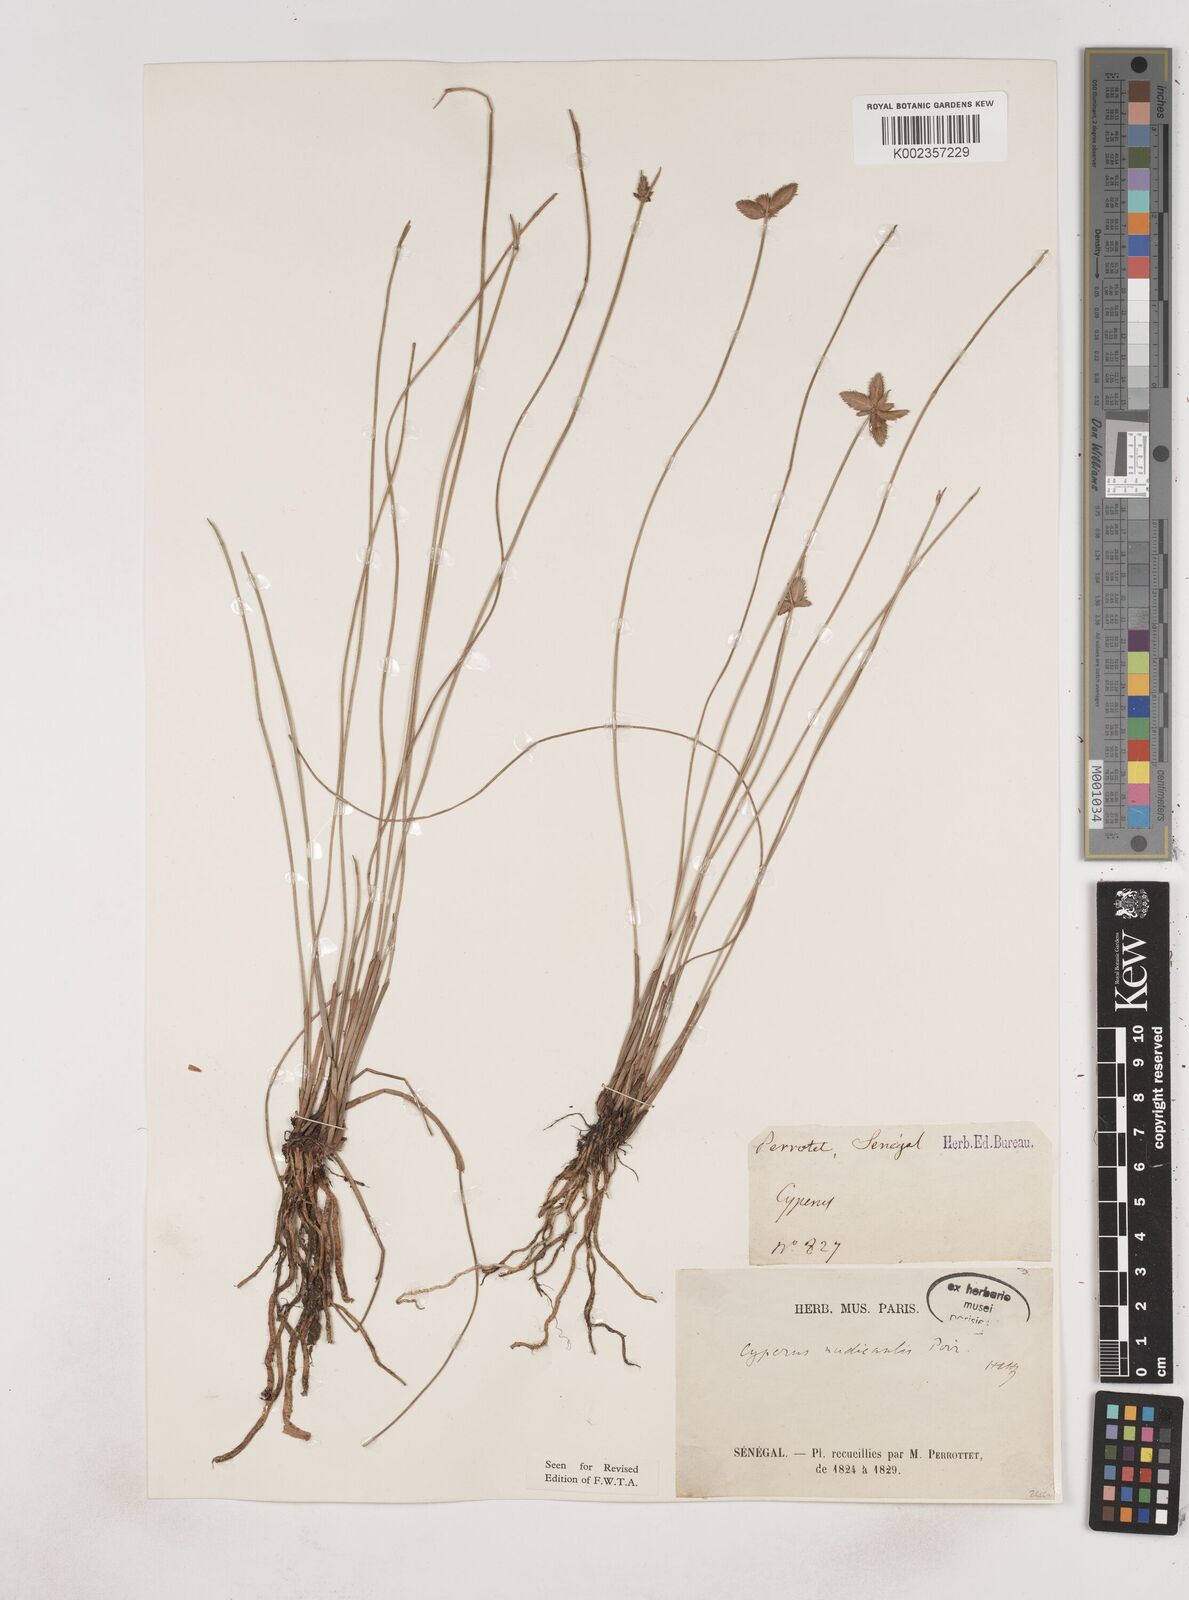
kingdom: Plantae
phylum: Tracheophyta
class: Liliopsida
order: Poales
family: Cyperaceae
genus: Cyperus
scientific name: Cyperus pectinatus
